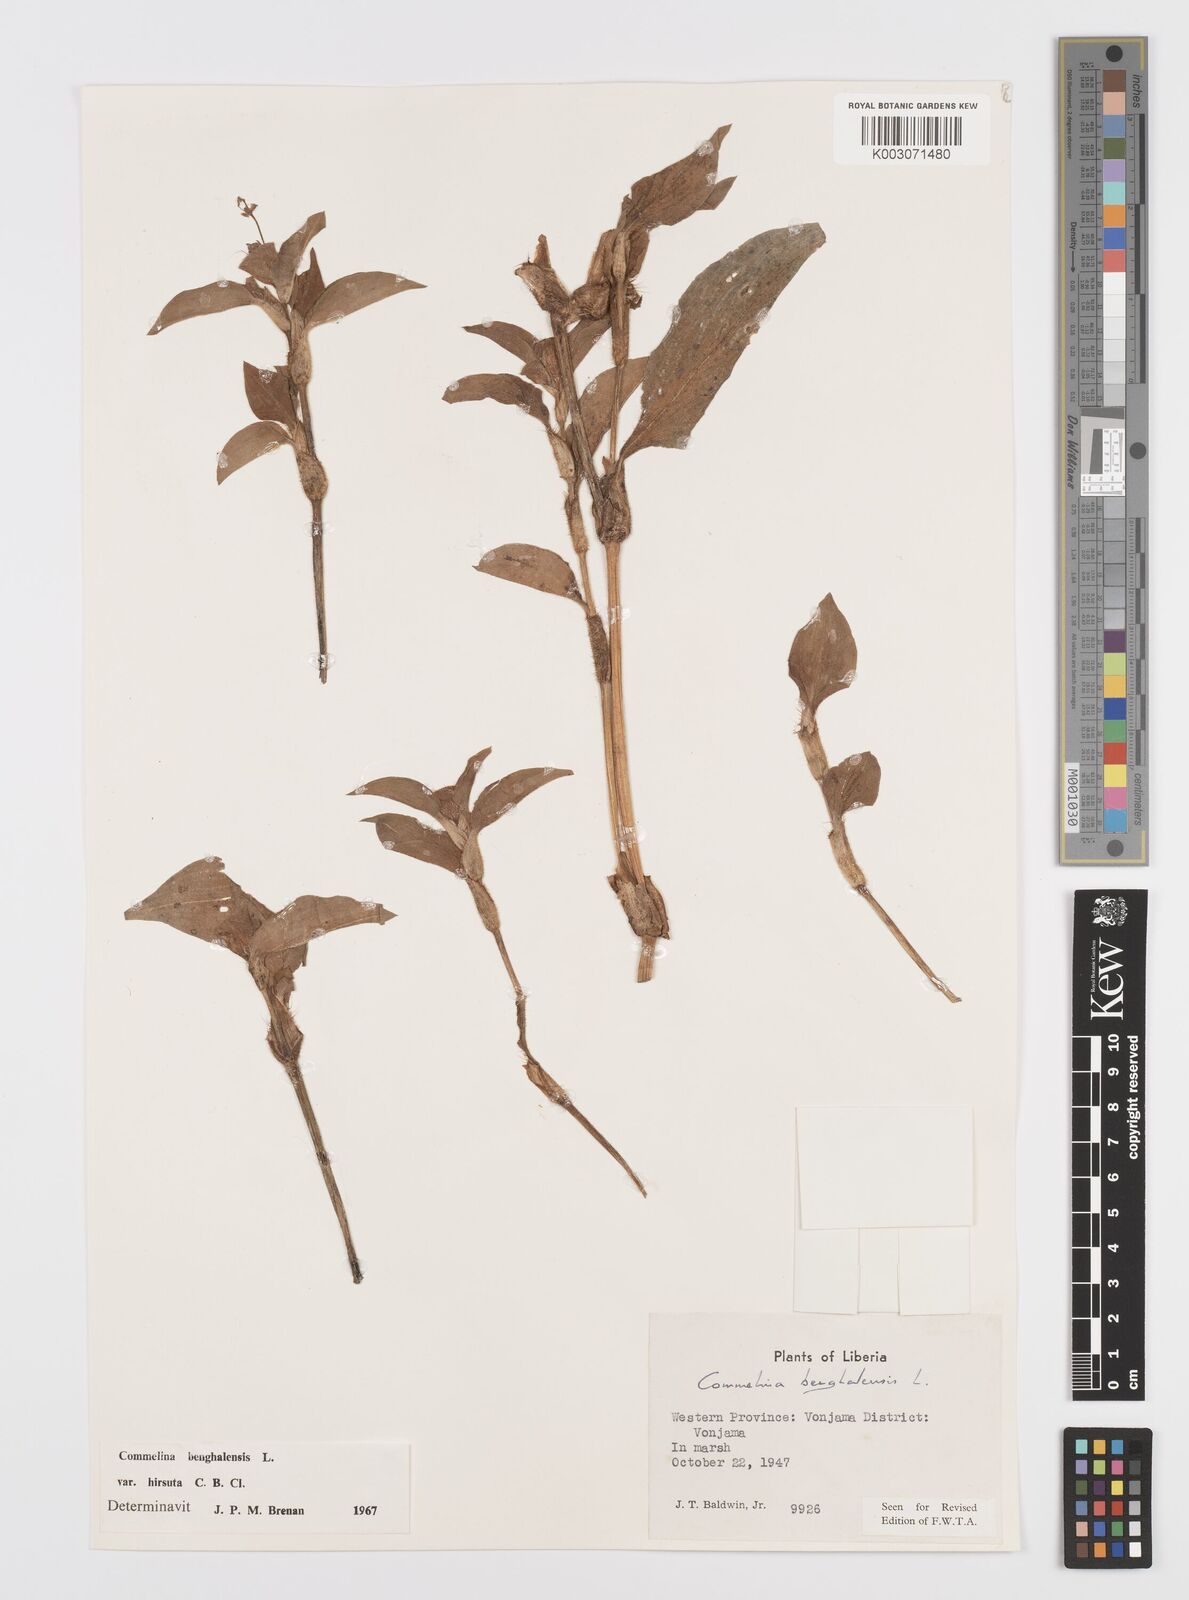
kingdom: Plantae
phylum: Tracheophyta
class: Liliopsida
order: Commelinales
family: Commelinaceae
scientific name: Commelinaceae
